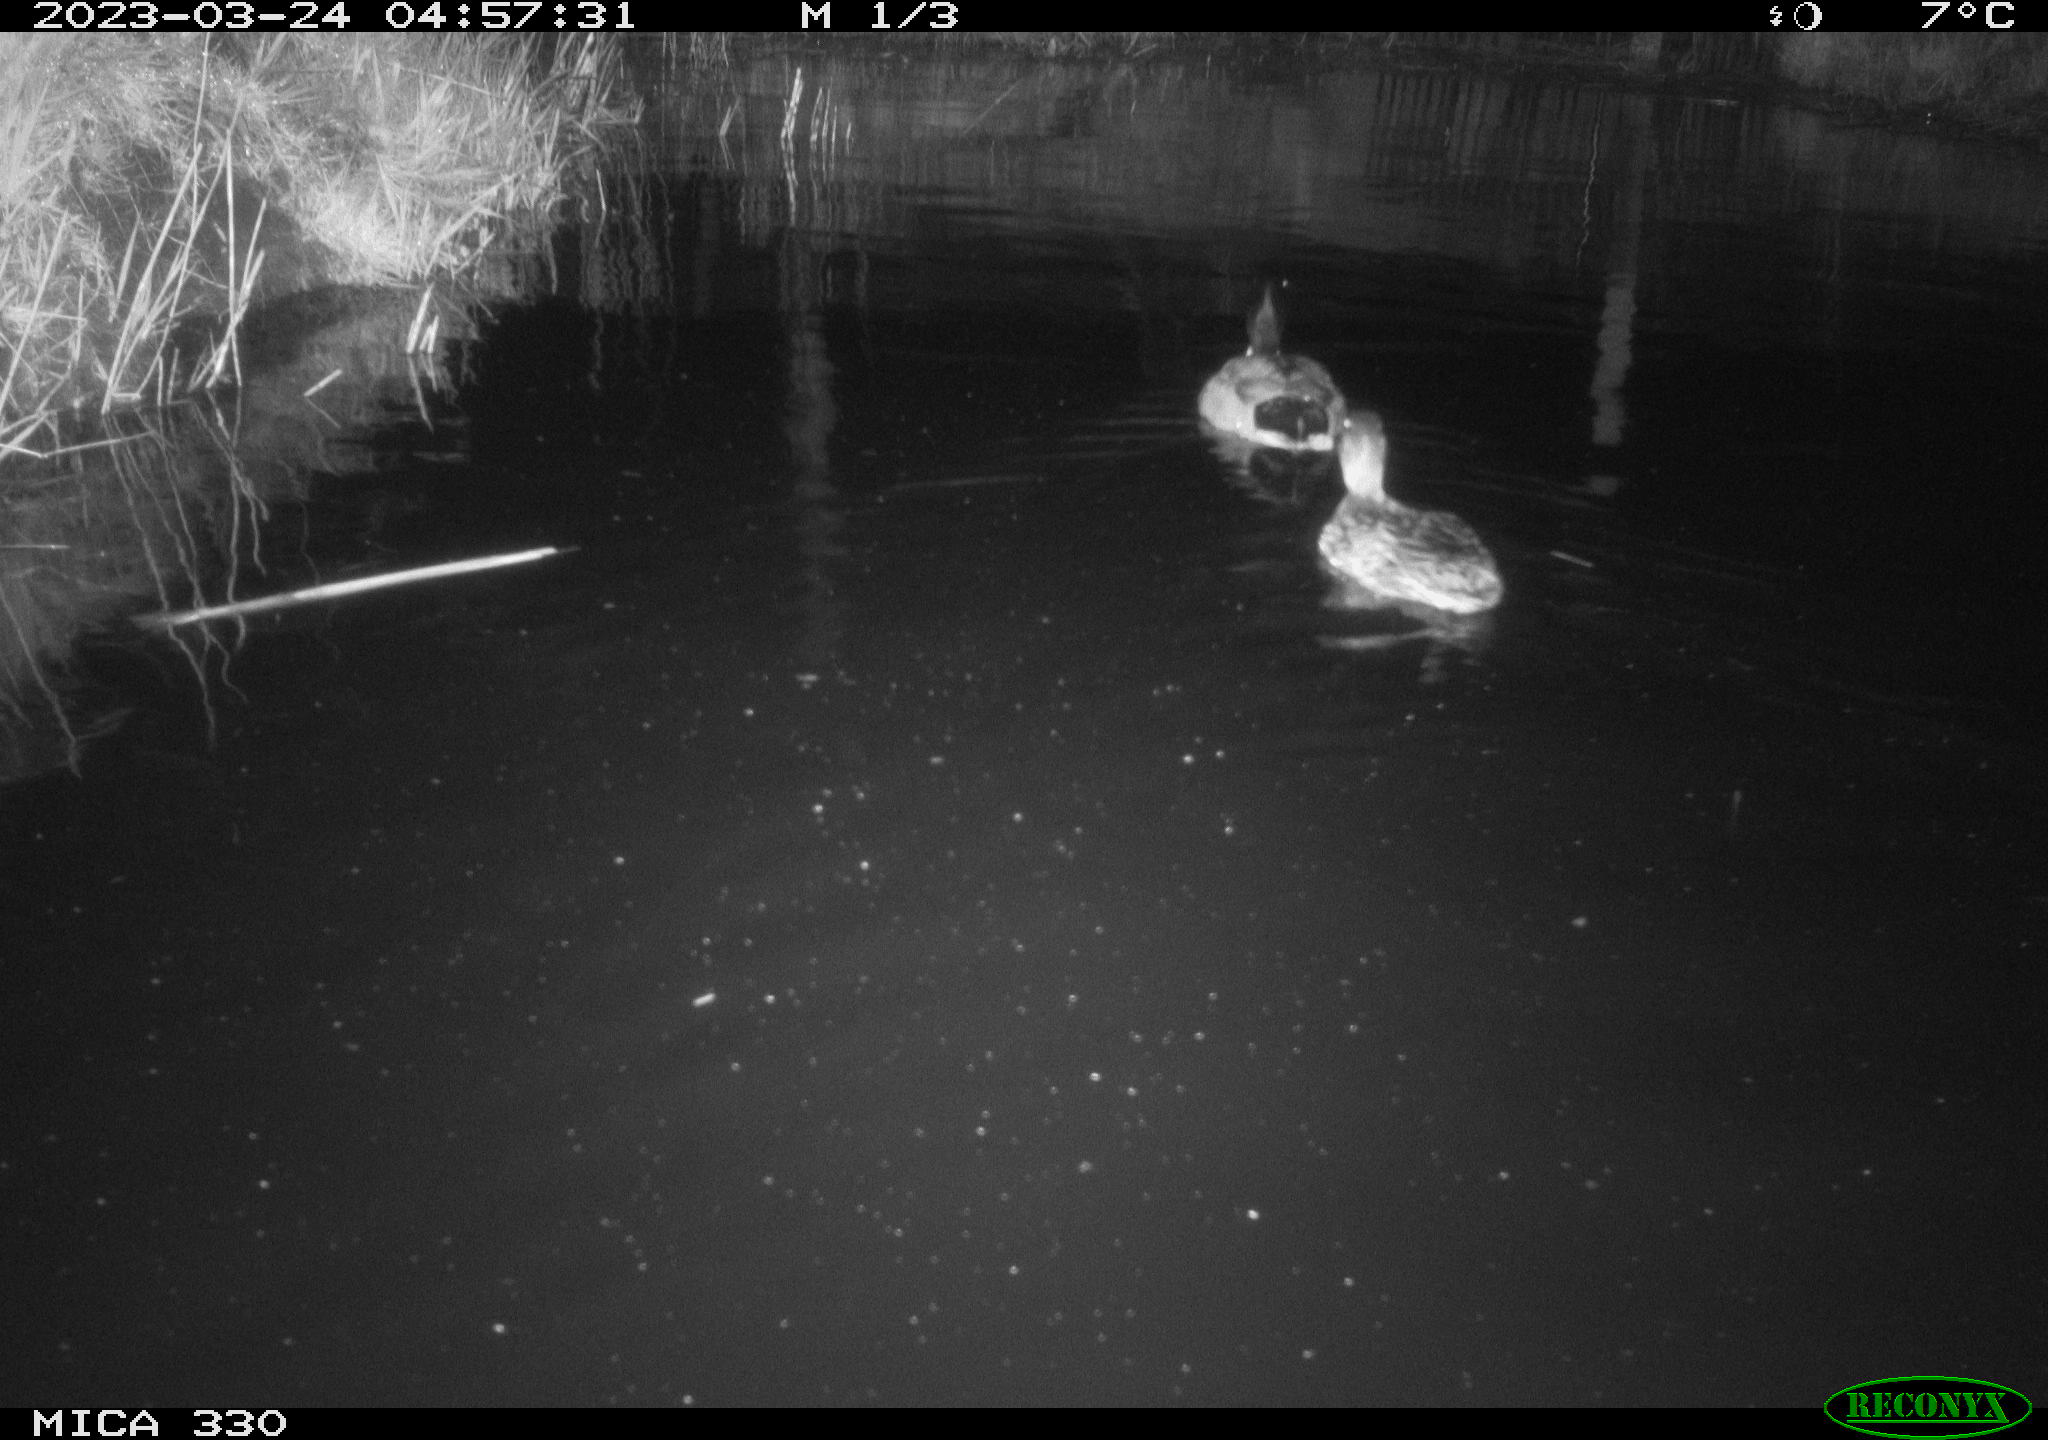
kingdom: Animalia
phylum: Chordata
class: Aves
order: Anseriformes
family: Anatidae
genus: Anas
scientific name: Anas
